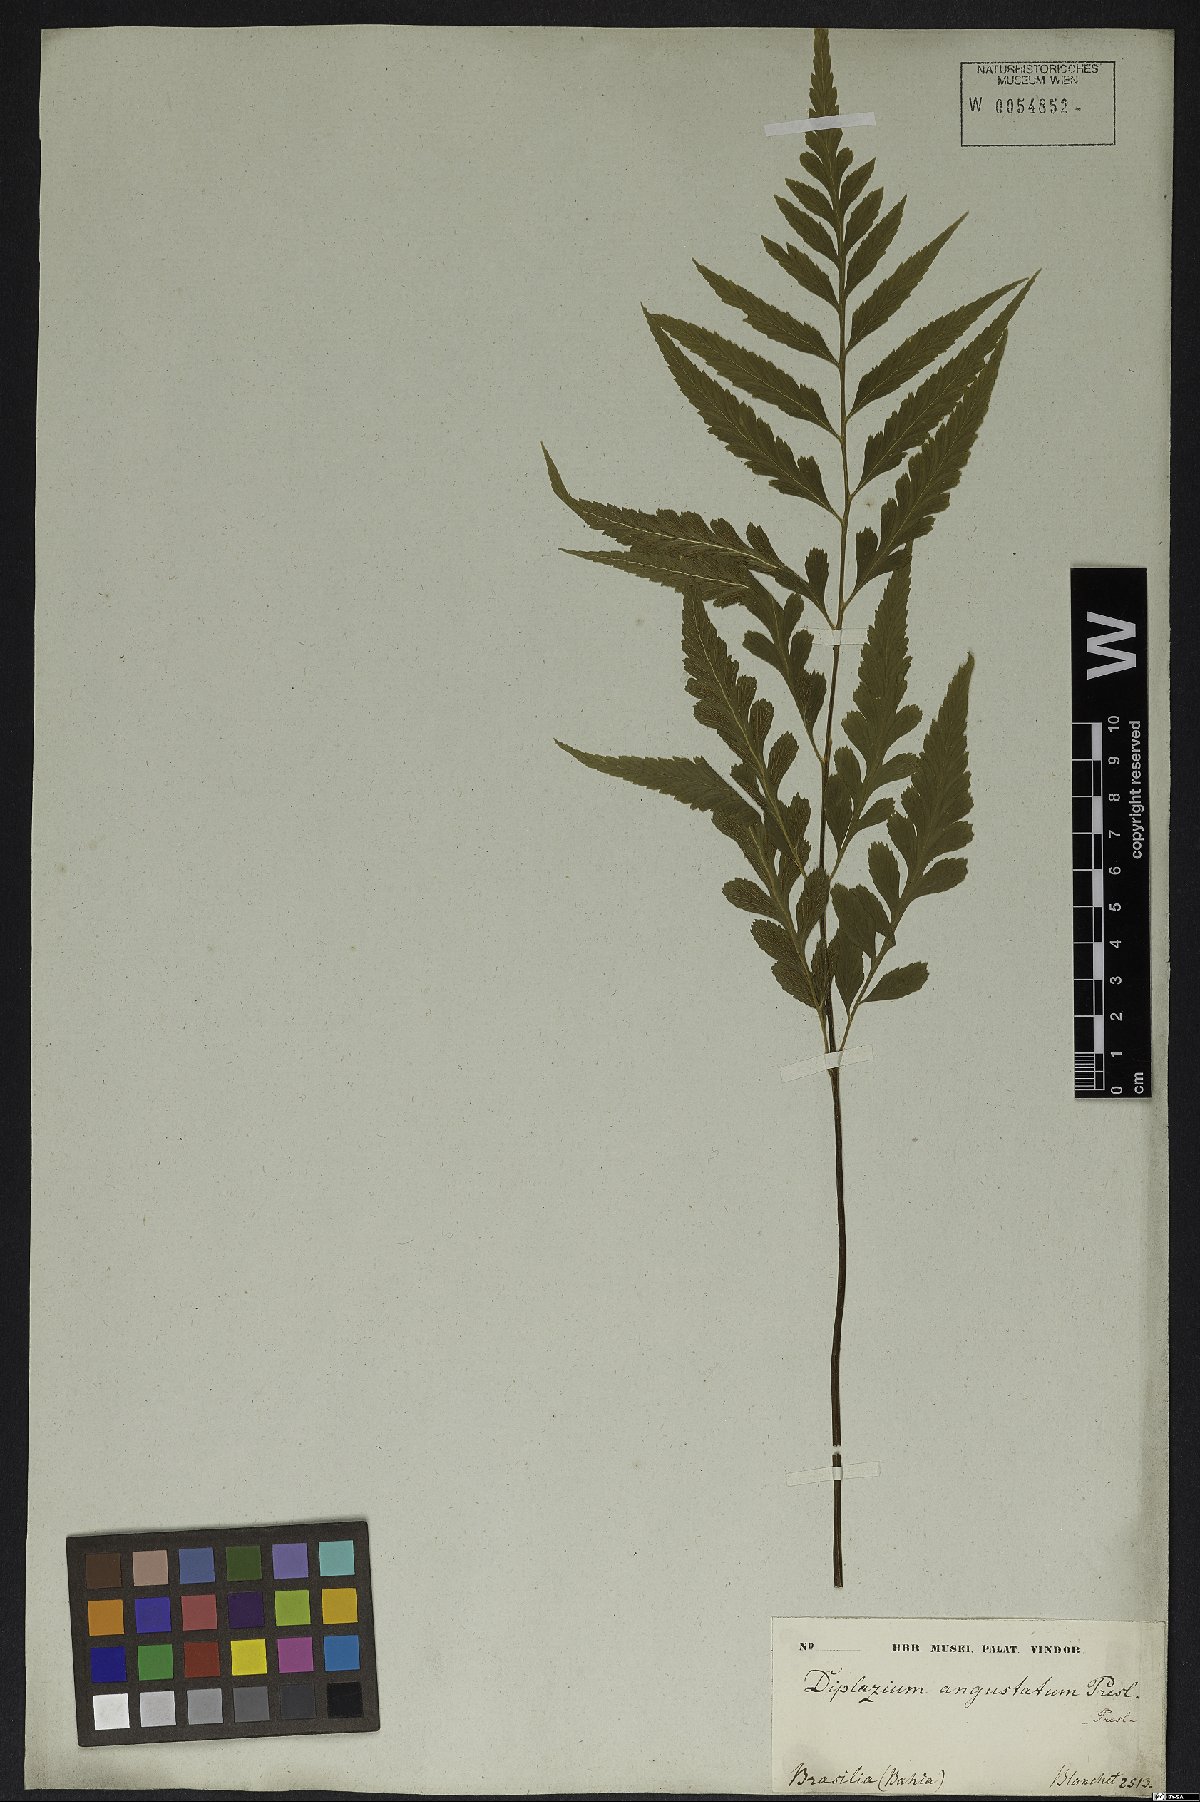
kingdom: Plantae
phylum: Tracheophyta
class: Polypodiopsida
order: Polypodiales
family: Aspleniaceae
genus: Asplenium
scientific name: Asplenium austrobrasiliense
